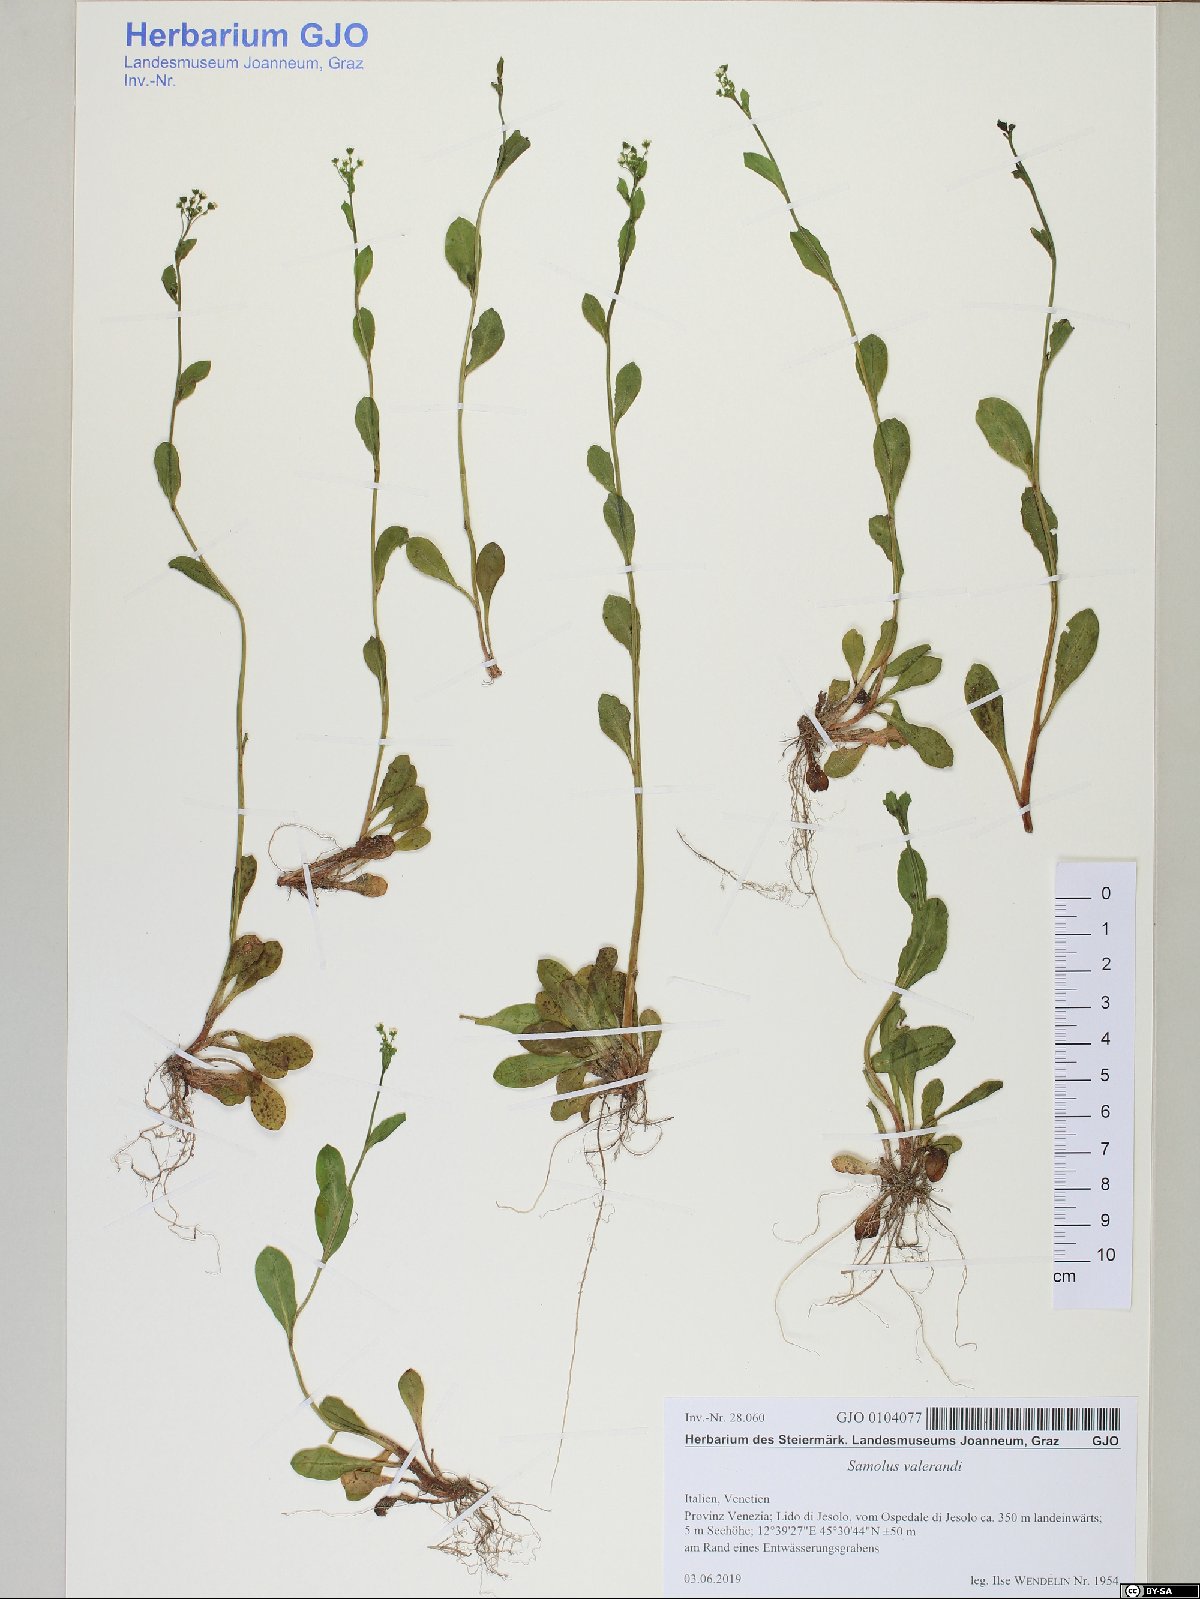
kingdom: Plantae
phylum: Tracheophyta
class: Magnoliopsida
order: Ericales
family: Primulaceae
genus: Samolus
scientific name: Samolus valerandi
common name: Brookweed
